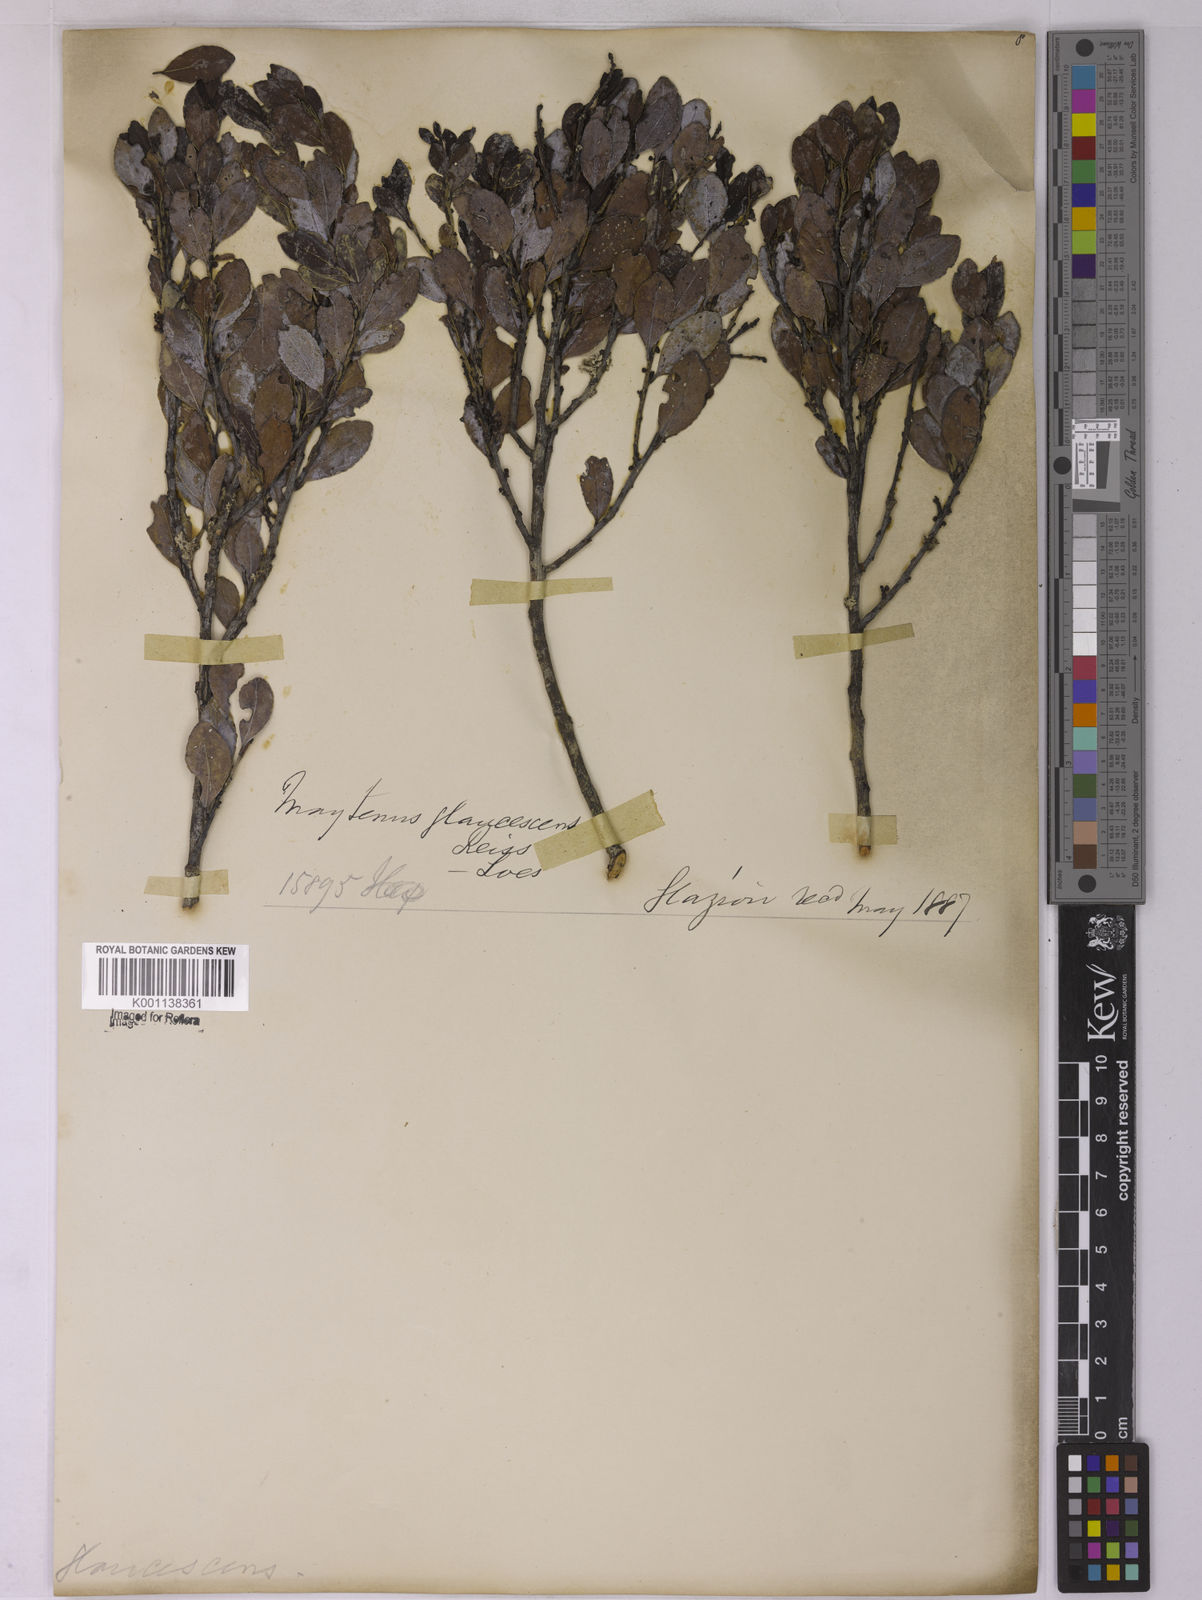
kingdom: Plantae
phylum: Tracheophyta
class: Magnoliopsida
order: Celastrales
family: Celastraceae
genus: Monteverdia
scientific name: Monteverdia glaucescens
